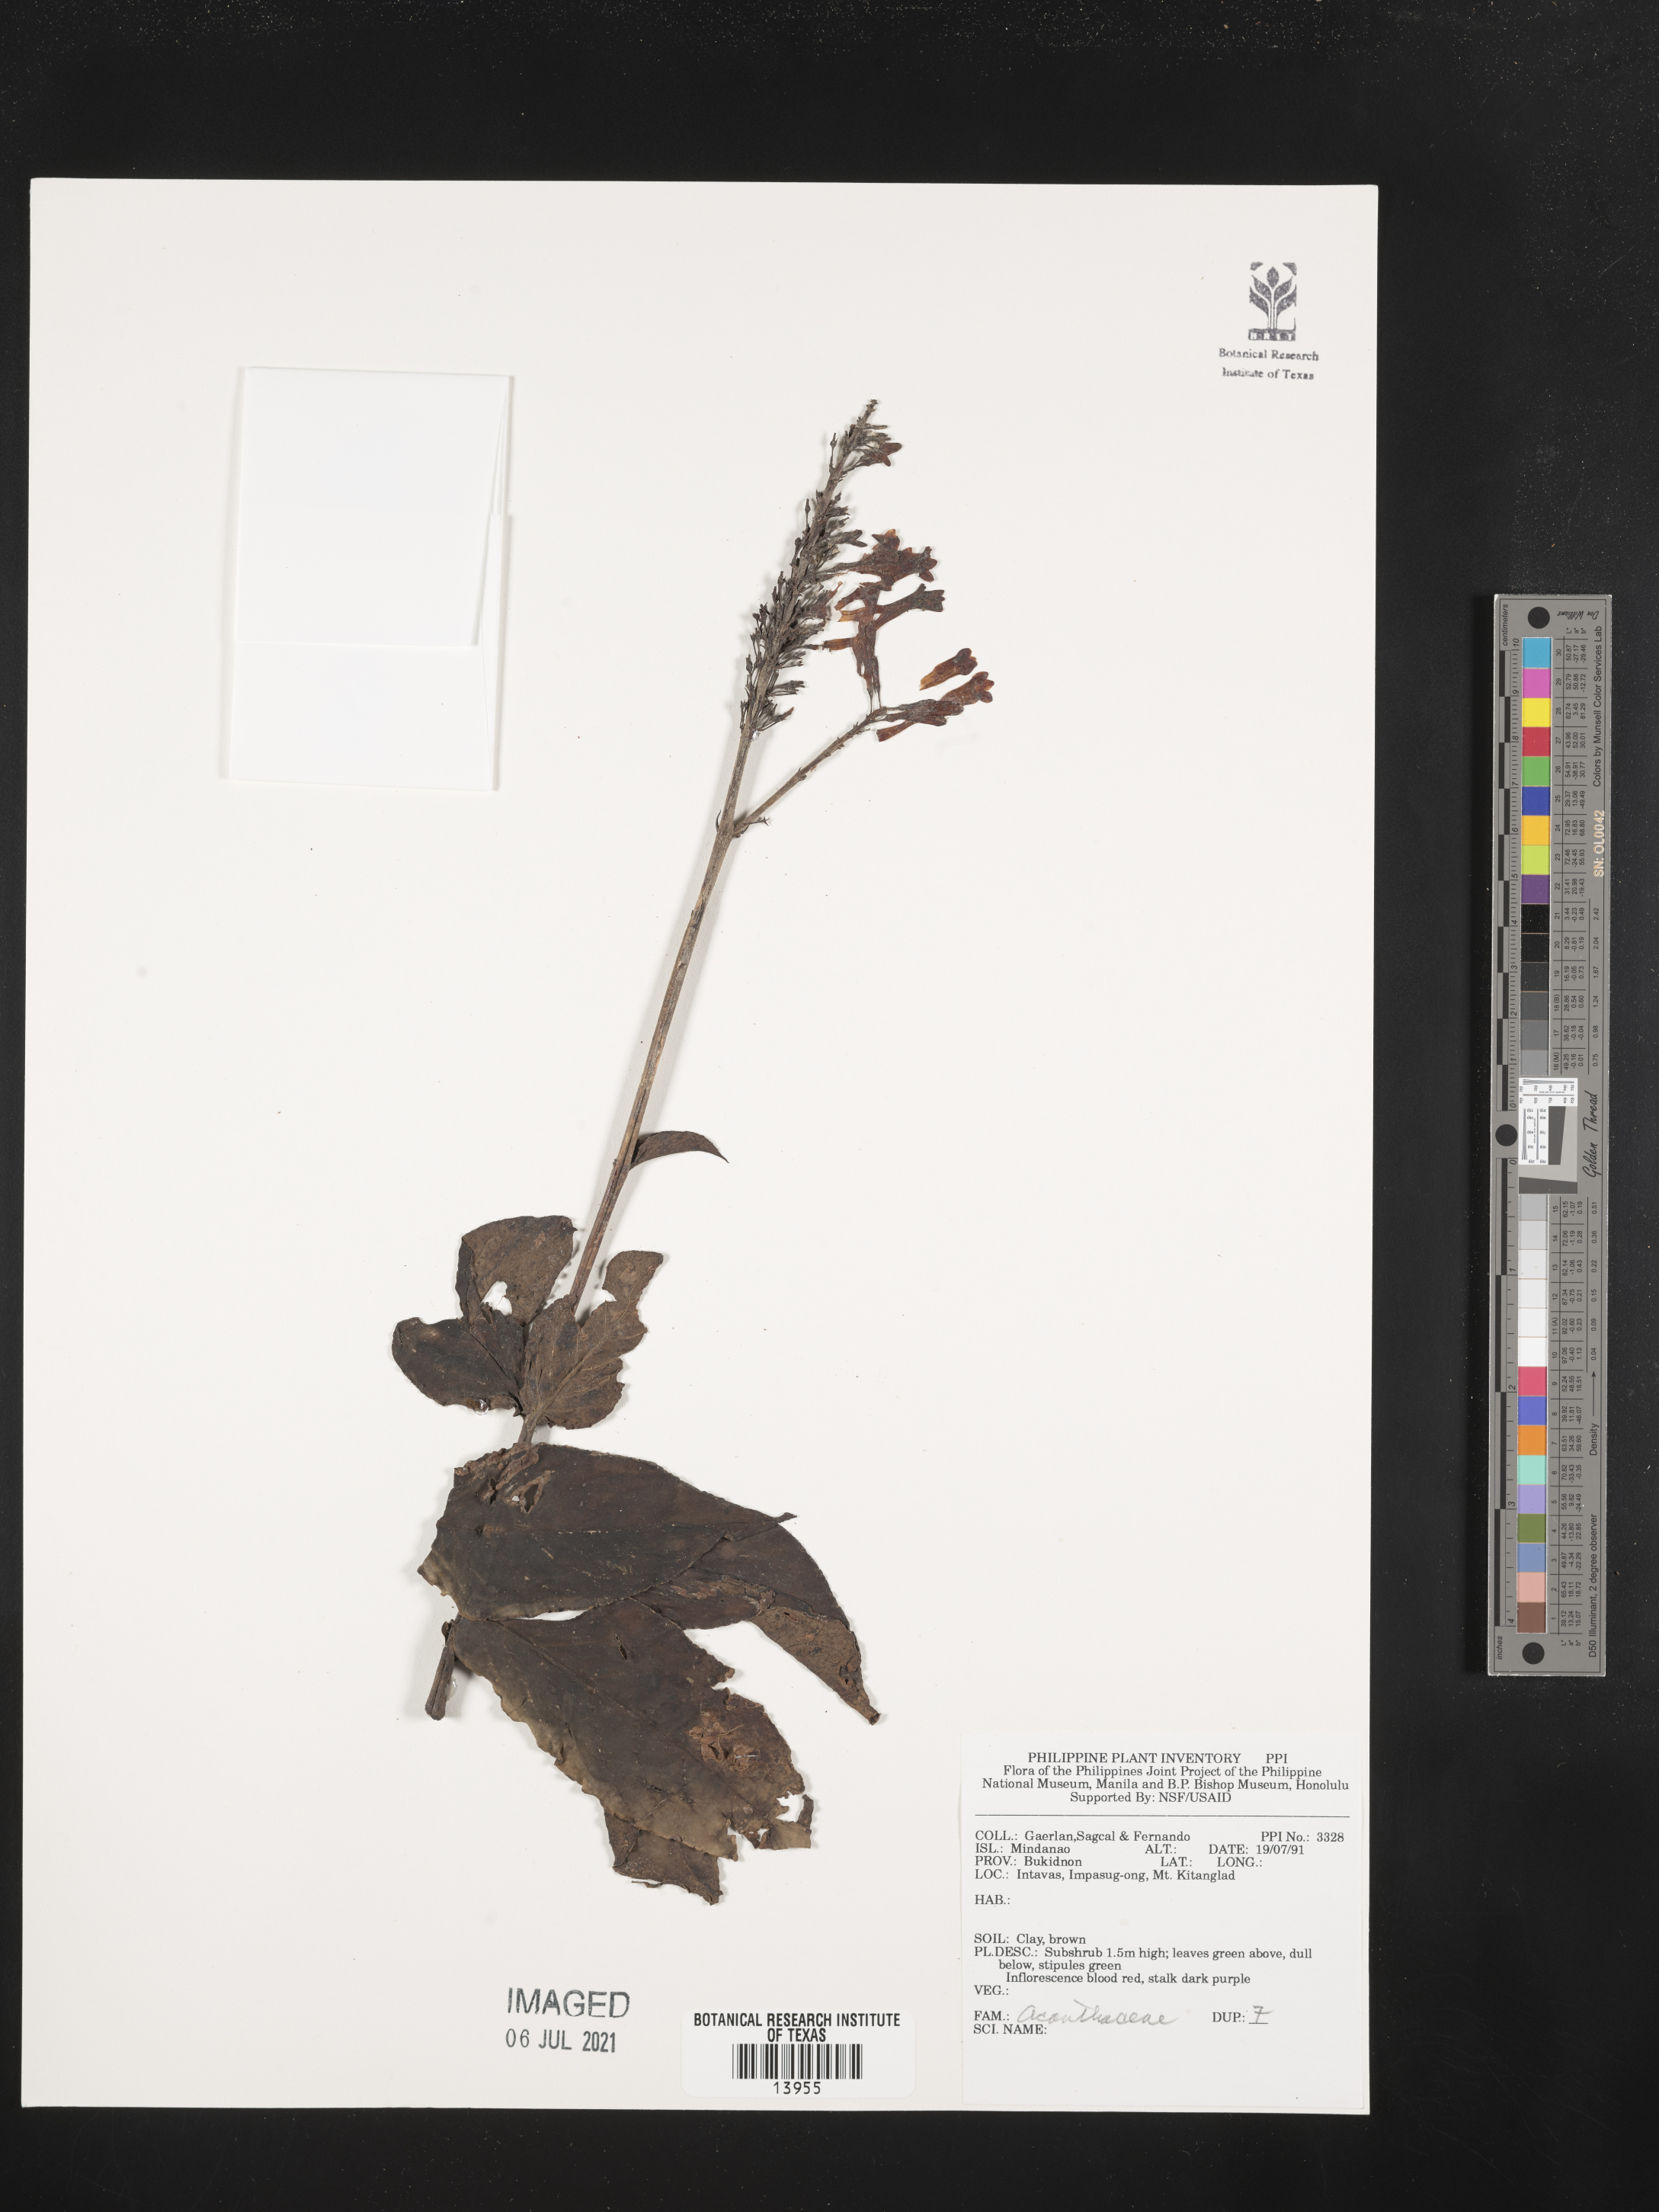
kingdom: Plantae
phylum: Tracheophyta
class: Magnoliopsida
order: Lamiales
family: Acanthaceae
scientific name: Acanthaceae
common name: Acanthaceae
